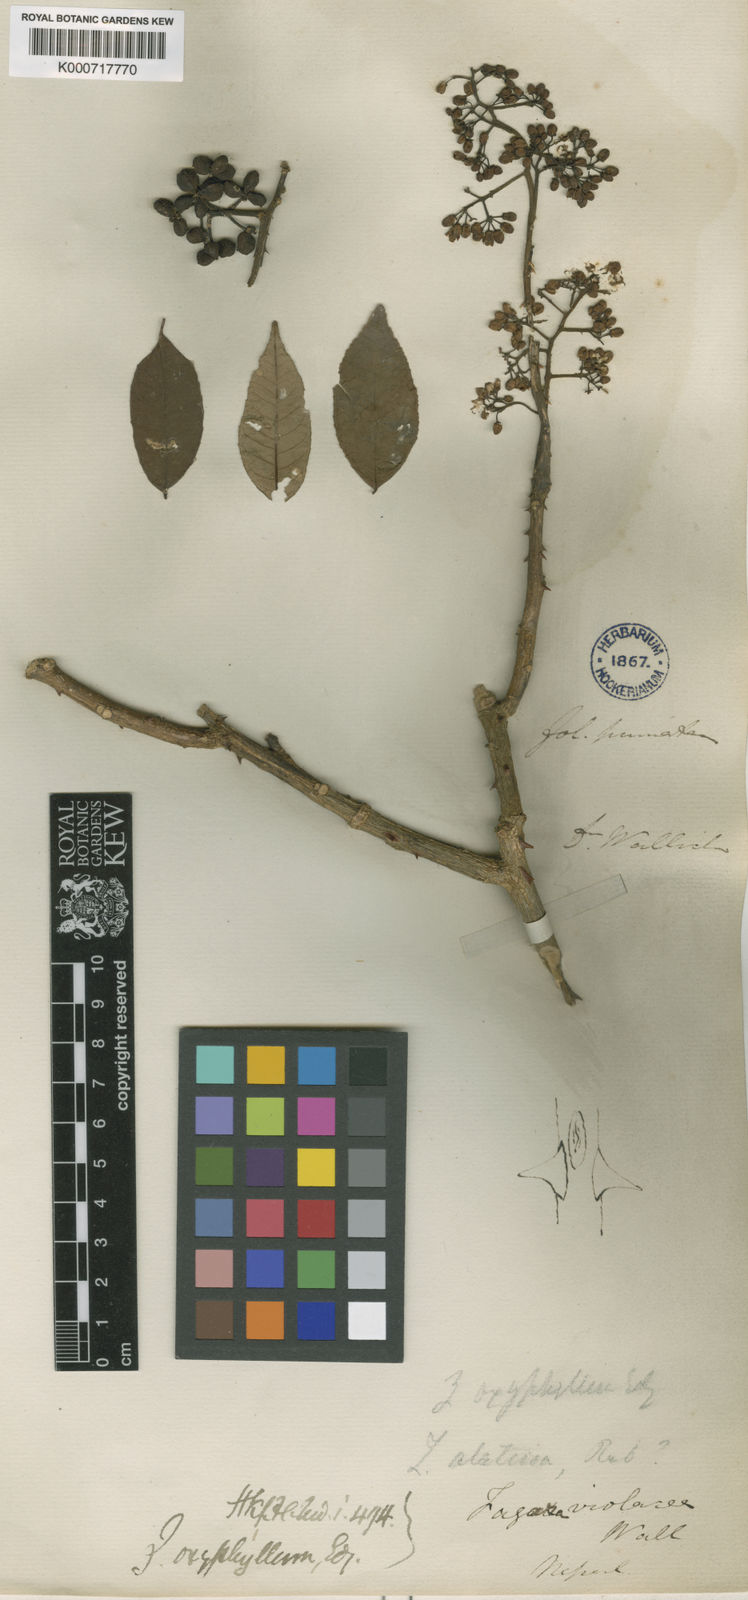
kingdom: Plantae
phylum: Tracheophyta
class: Magnoliopsida
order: Sapindales
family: Rutaceae
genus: Zanthoxylum
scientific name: Zanthoxylum oxyphyllum
